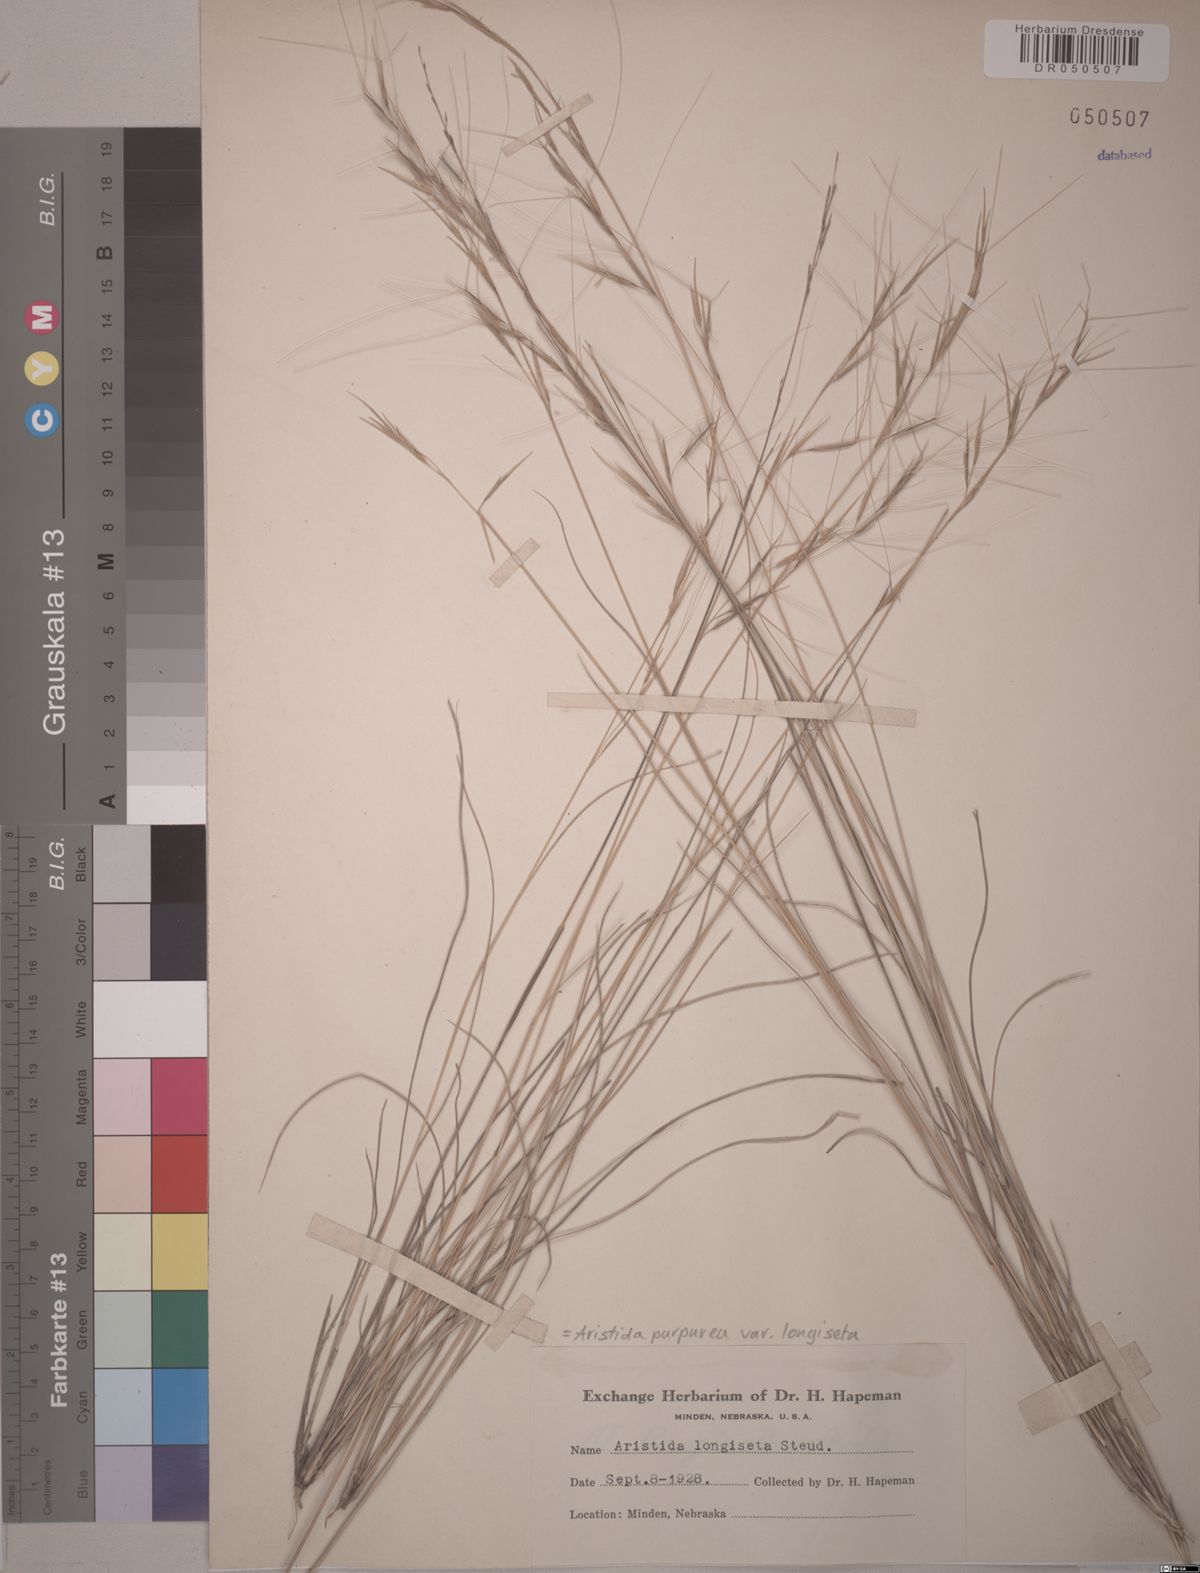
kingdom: Plantae
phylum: Tracheophyta
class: Liliopsida
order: Poales
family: Poaceae
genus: Aristida
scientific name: Aristida longiseta
